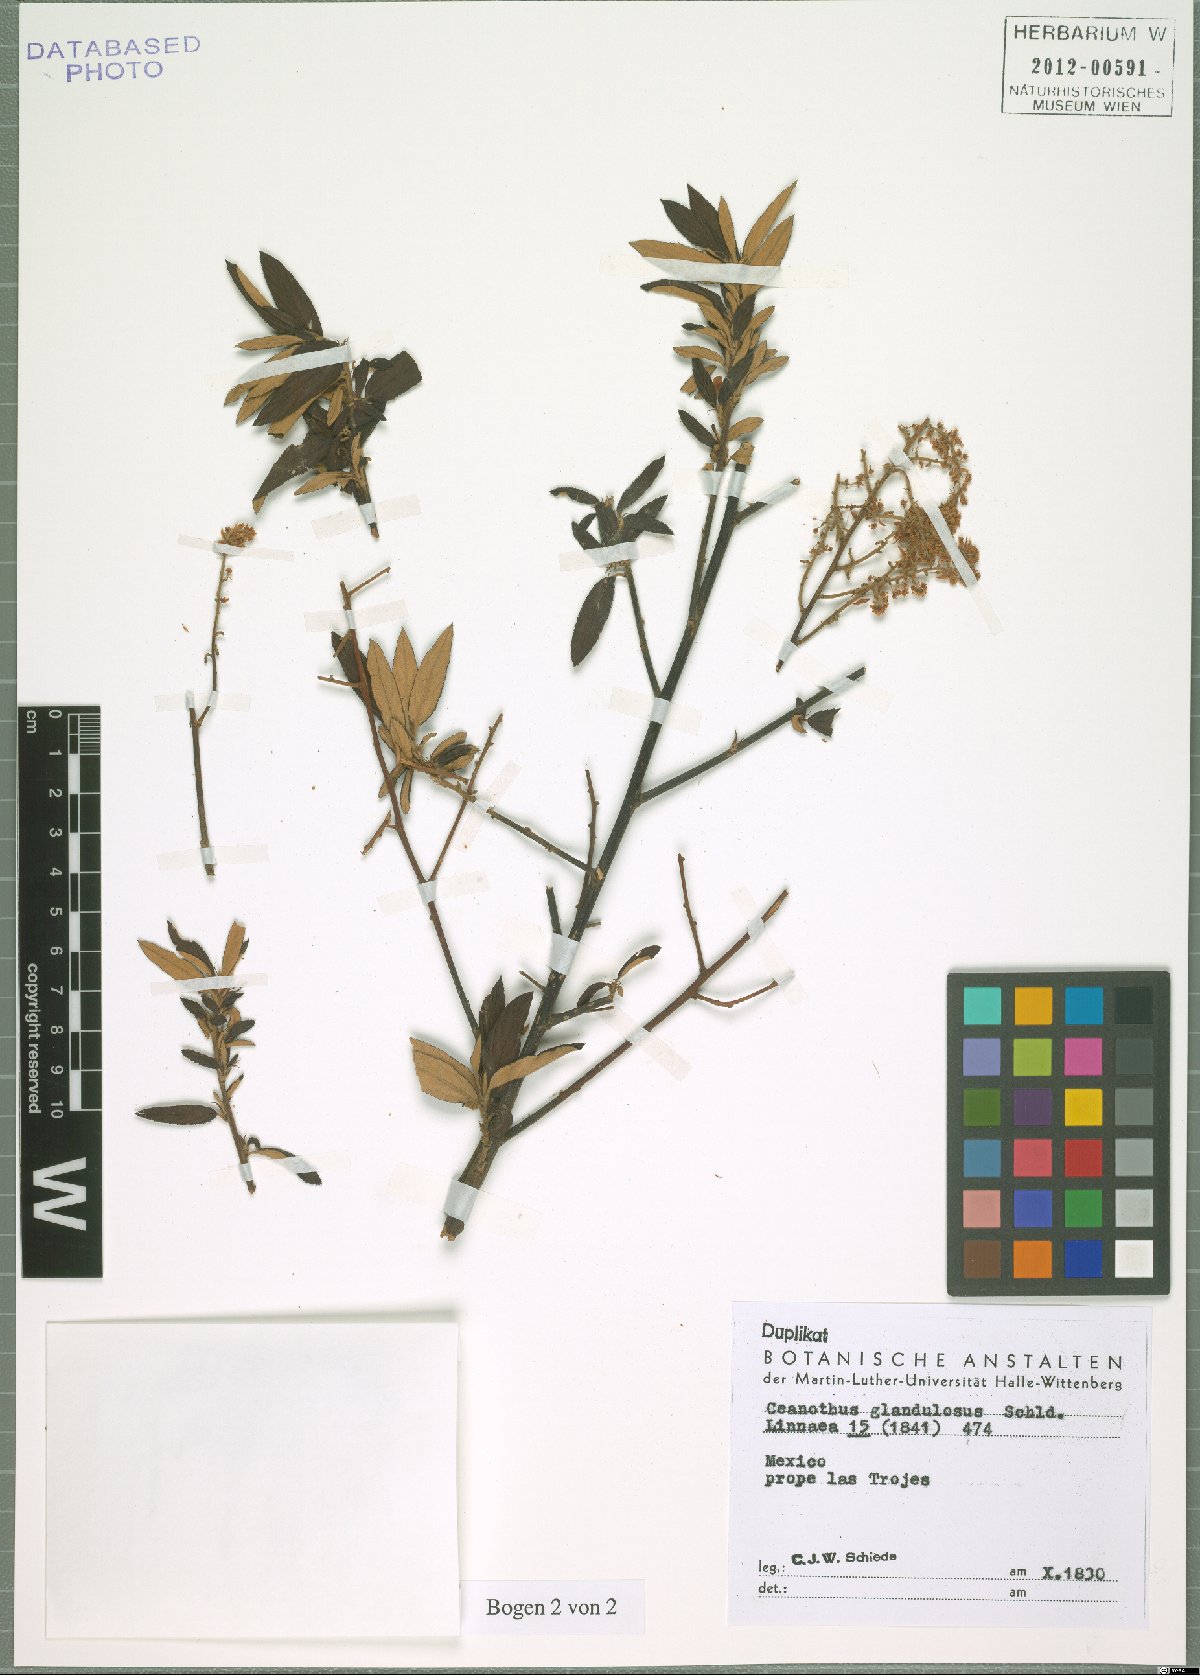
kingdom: Plantae
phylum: Tracheophyta
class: Magnoliopsida
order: Rosales
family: Rhamnaceae
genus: Ceanothus
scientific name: Ceanothus caeruleus
